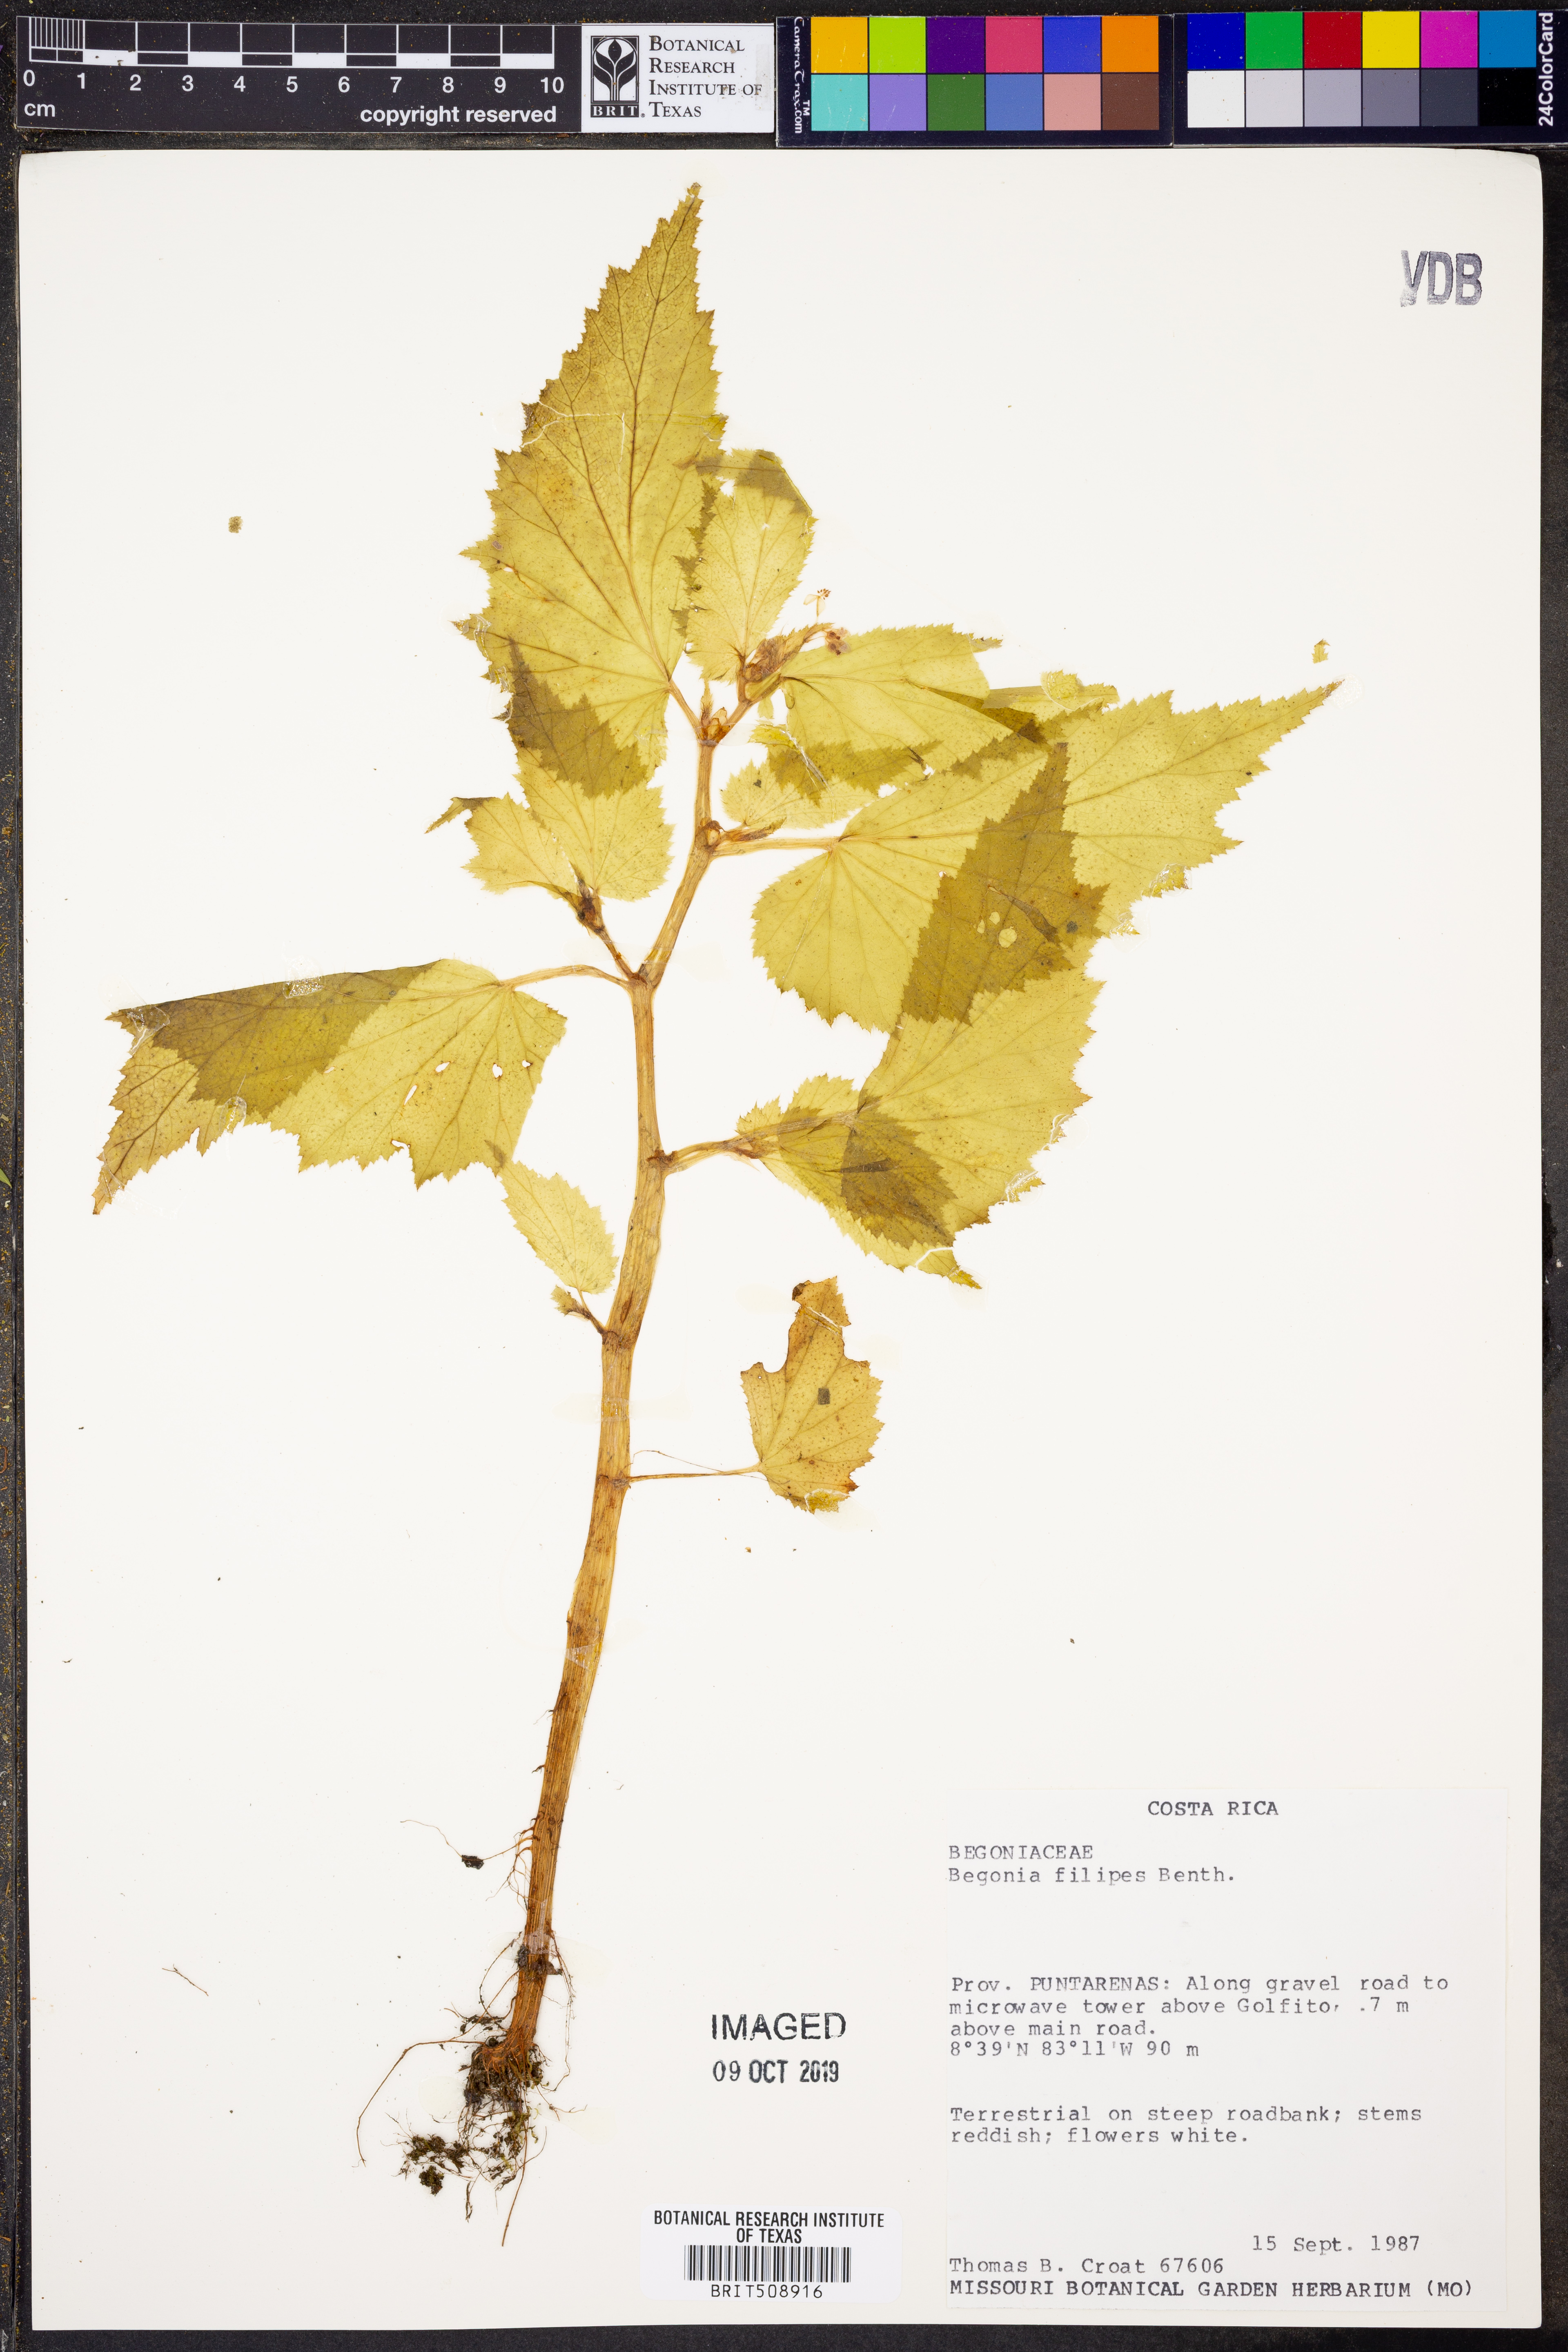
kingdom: Plantae
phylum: Tracheophyta
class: Magnoliopsida
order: Cucurbitales
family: Begoniaceae
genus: Begonia
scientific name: Begonia hirsuta
